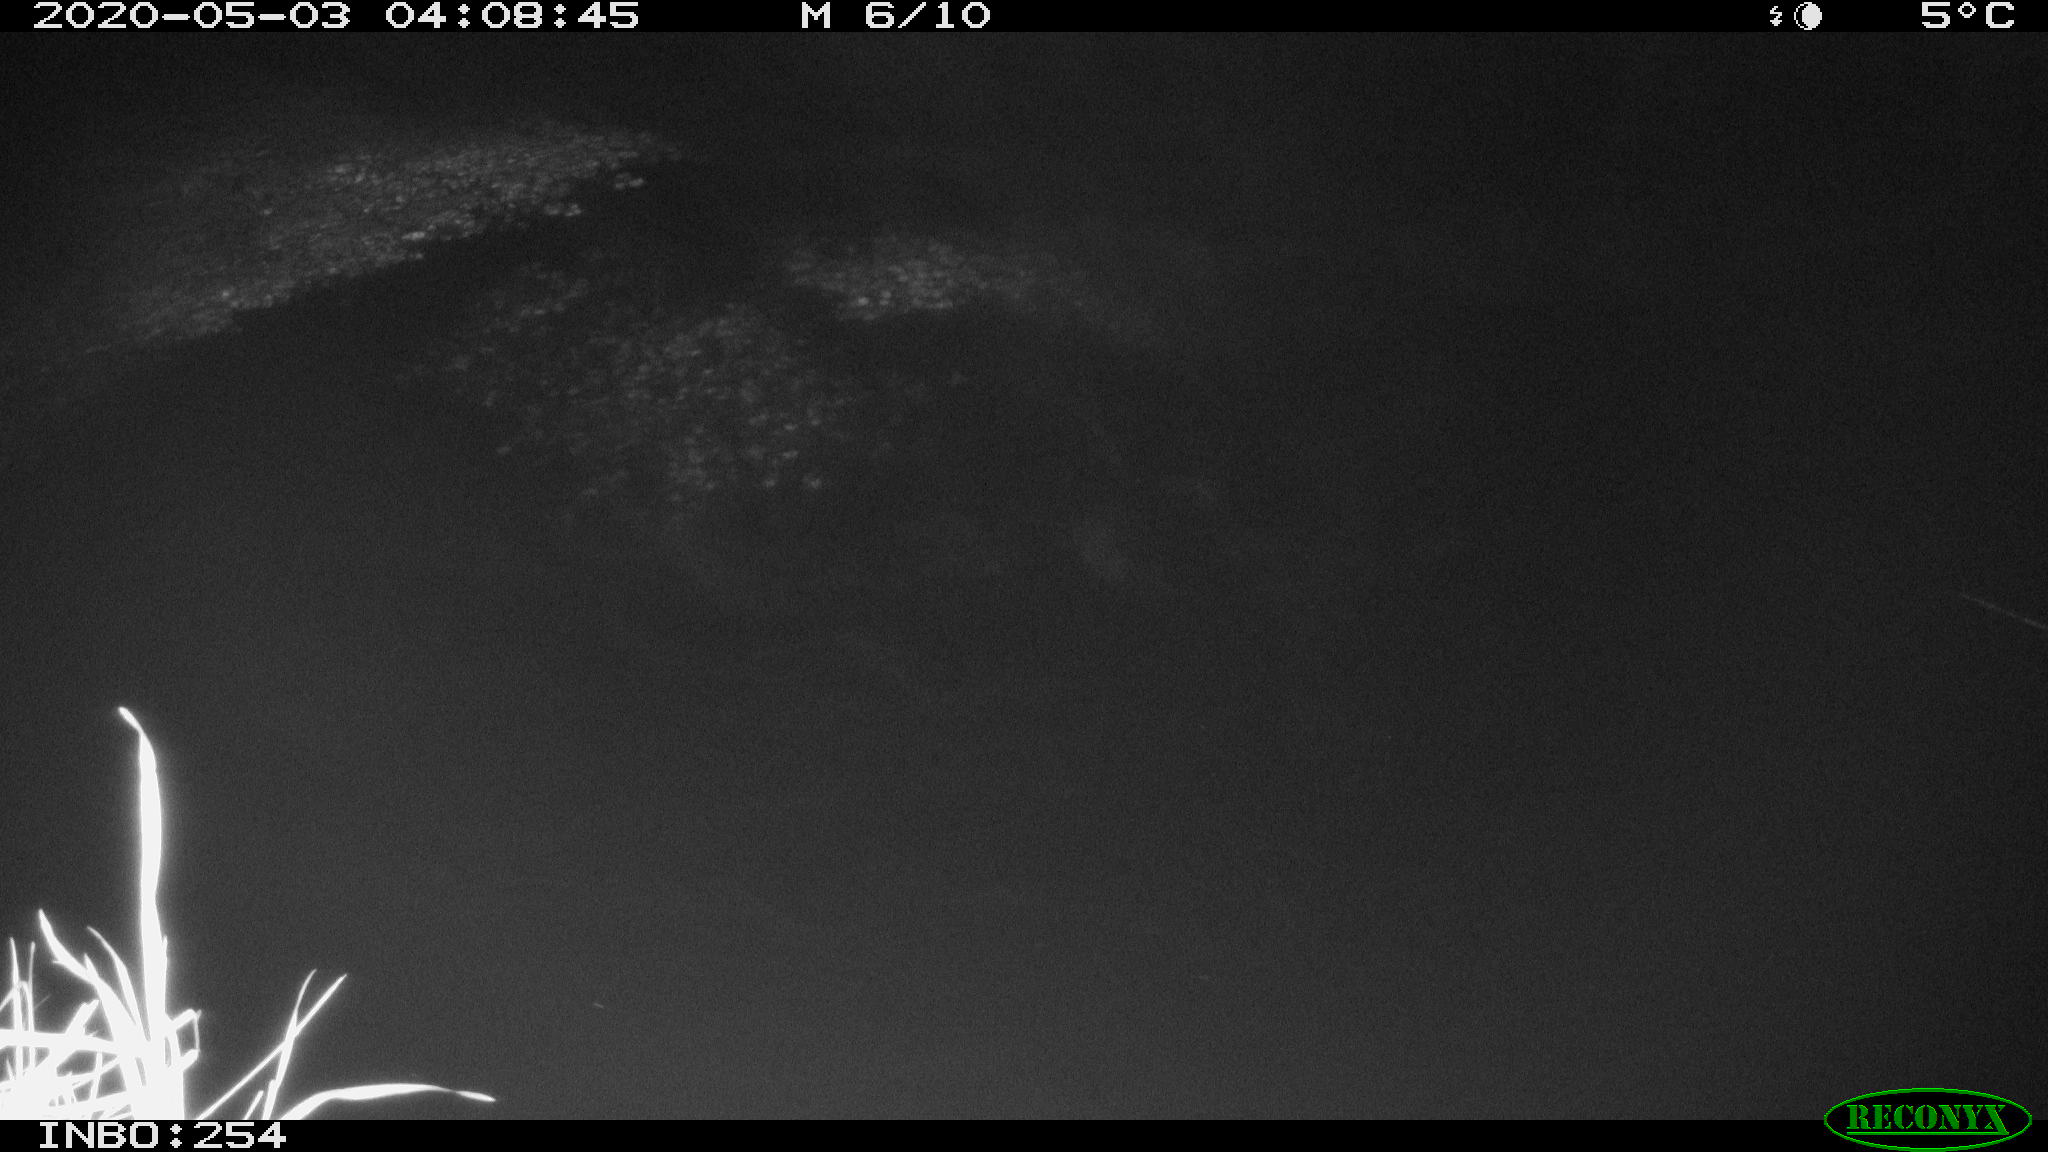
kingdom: Animalia
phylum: Chordata
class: Mammalia
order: Rodentia
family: Muridae
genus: Rattus
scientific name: Rattus norvegicus
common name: Brown rat
